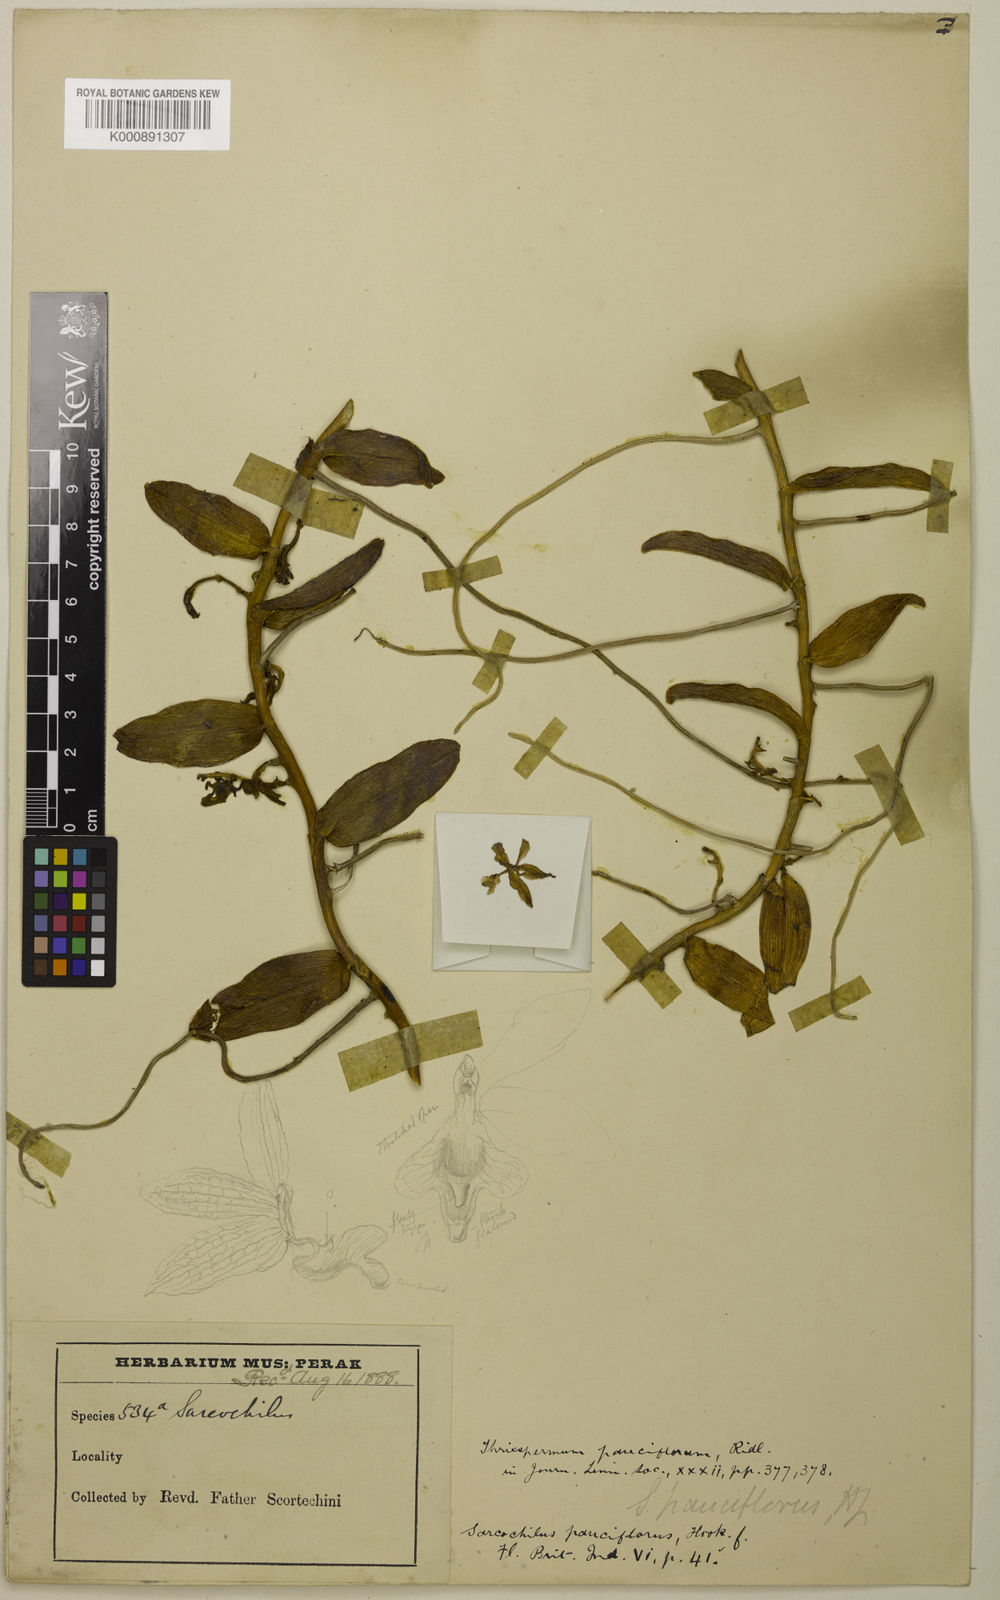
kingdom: Plantae
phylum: Tracheophyta
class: Liliopsida
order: Asparagales
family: Orchidaceae
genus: Thrixspermum
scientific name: Thrixspermum pauciflorum
